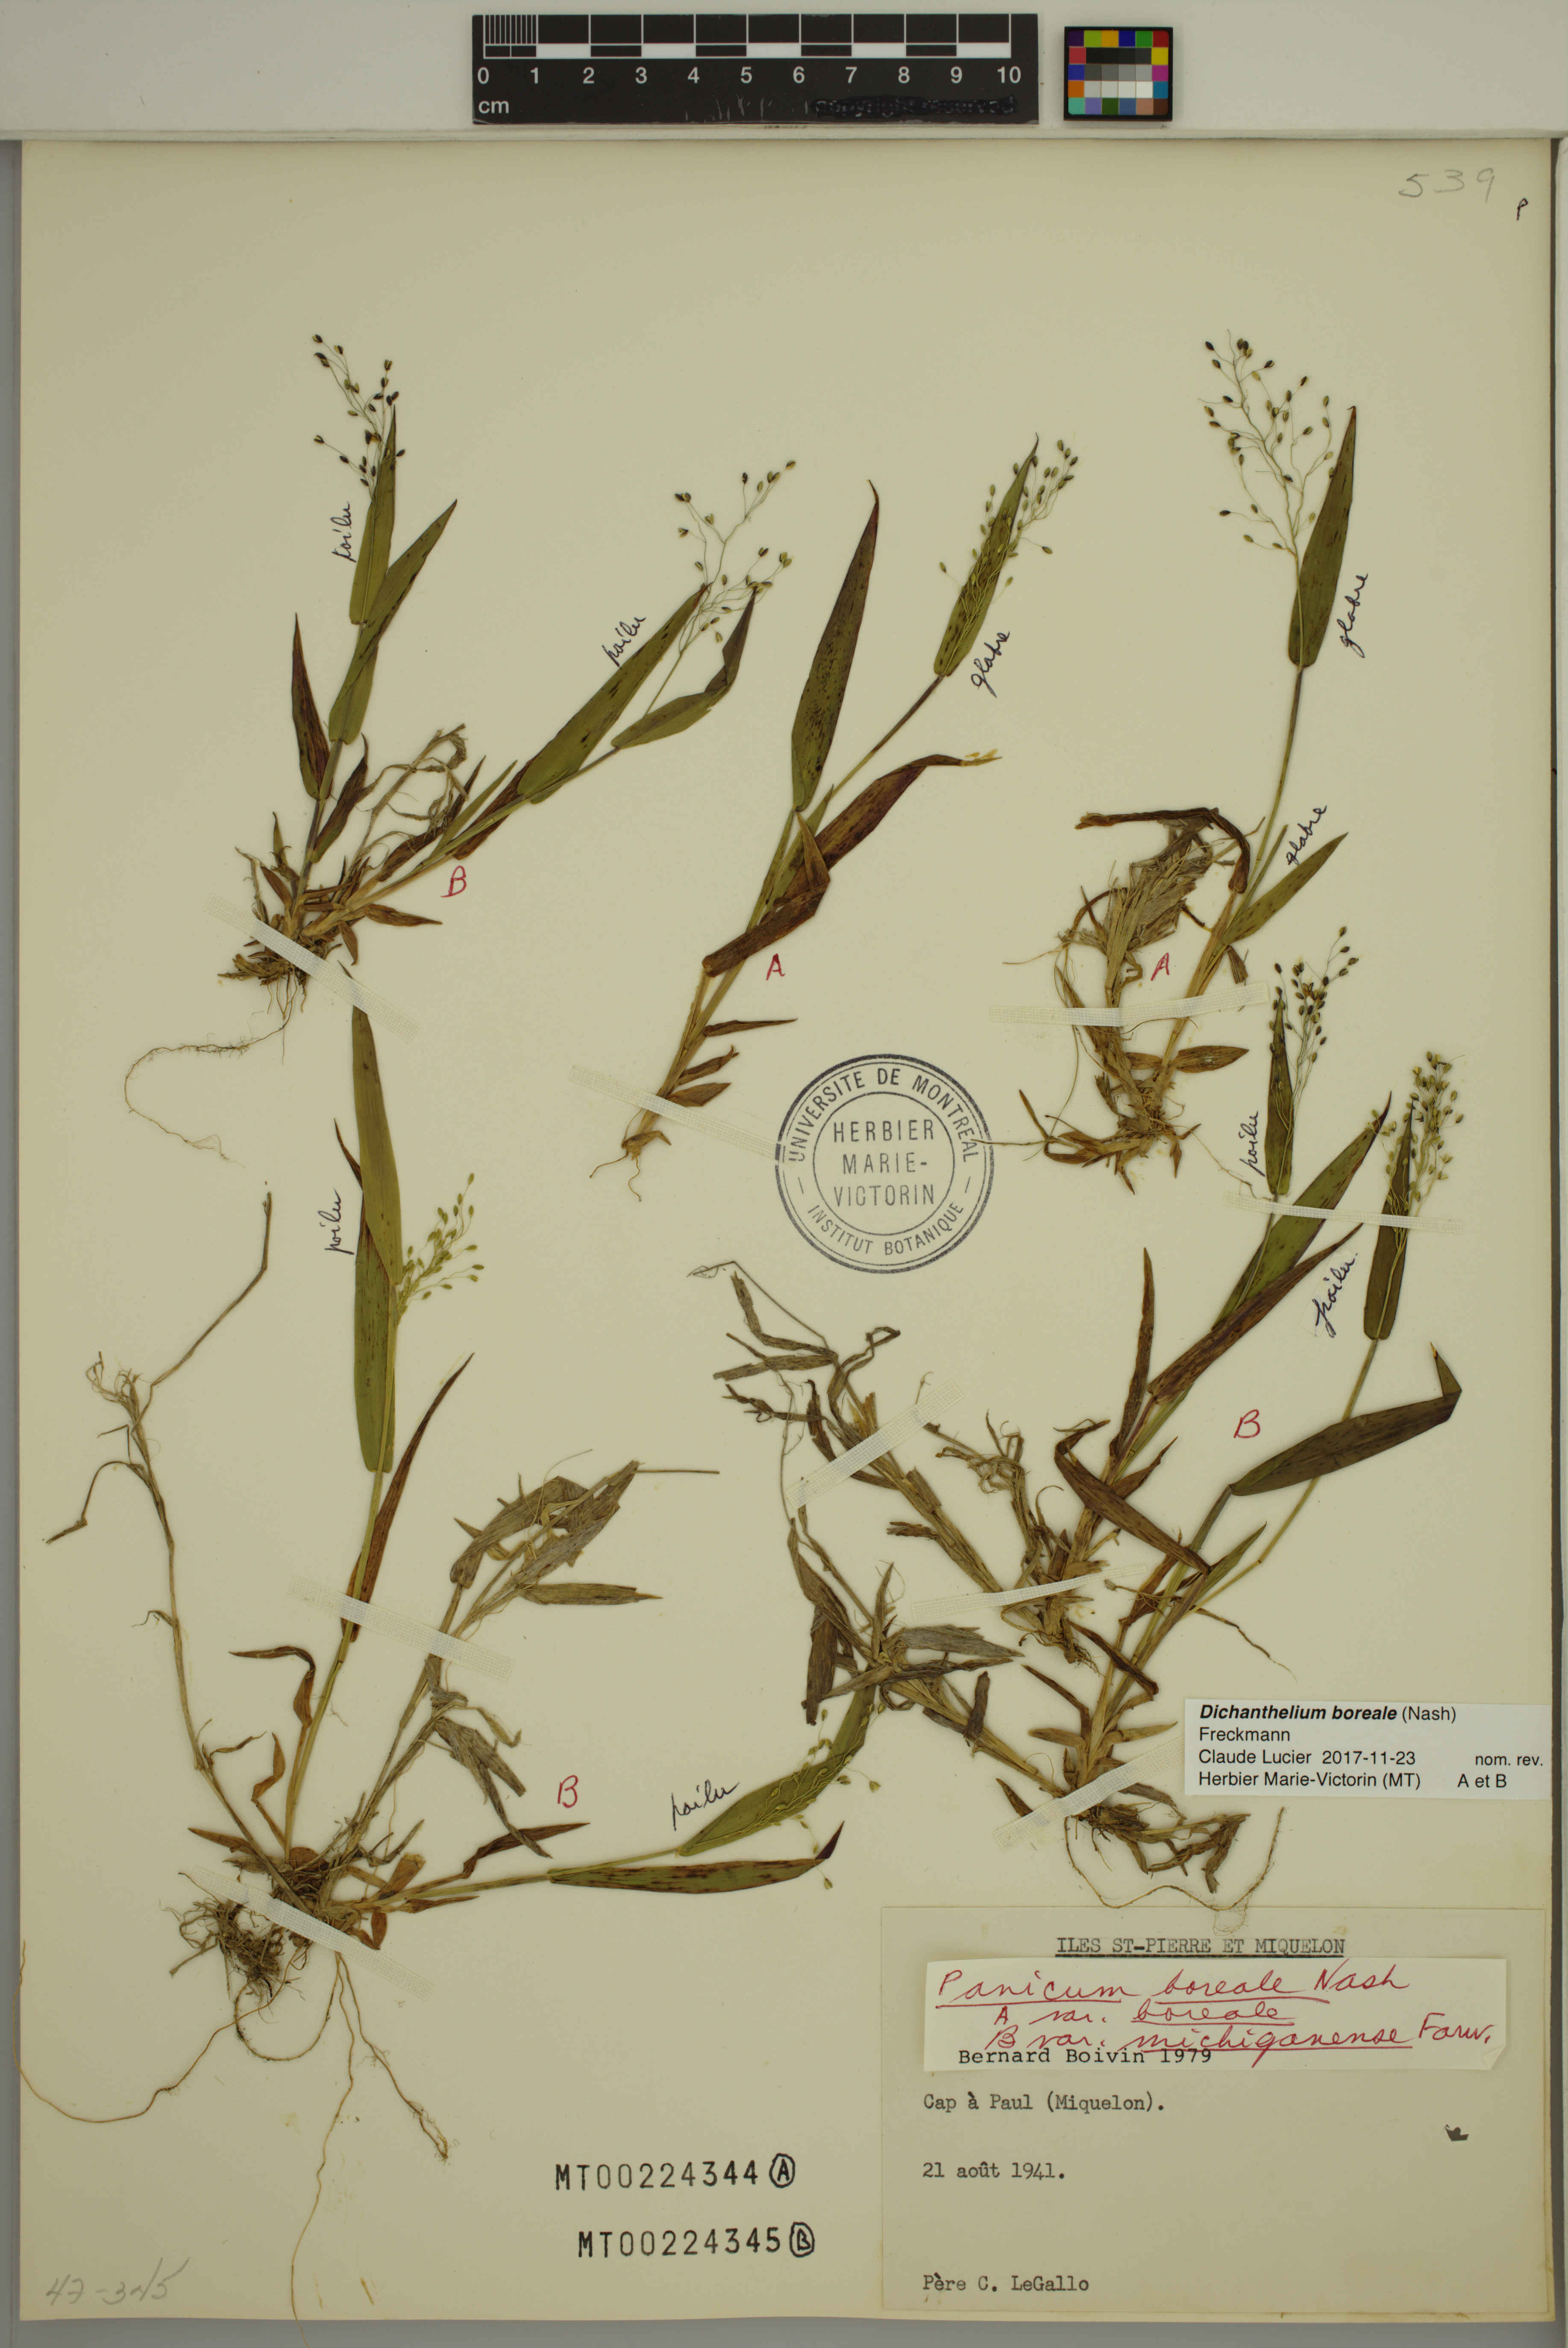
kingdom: Plantae
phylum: Tracheophyta
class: Liliopsida
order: Poales
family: Poaceae
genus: Dichanthelium
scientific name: Dichanthelium boreale
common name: Northern panicgrass
